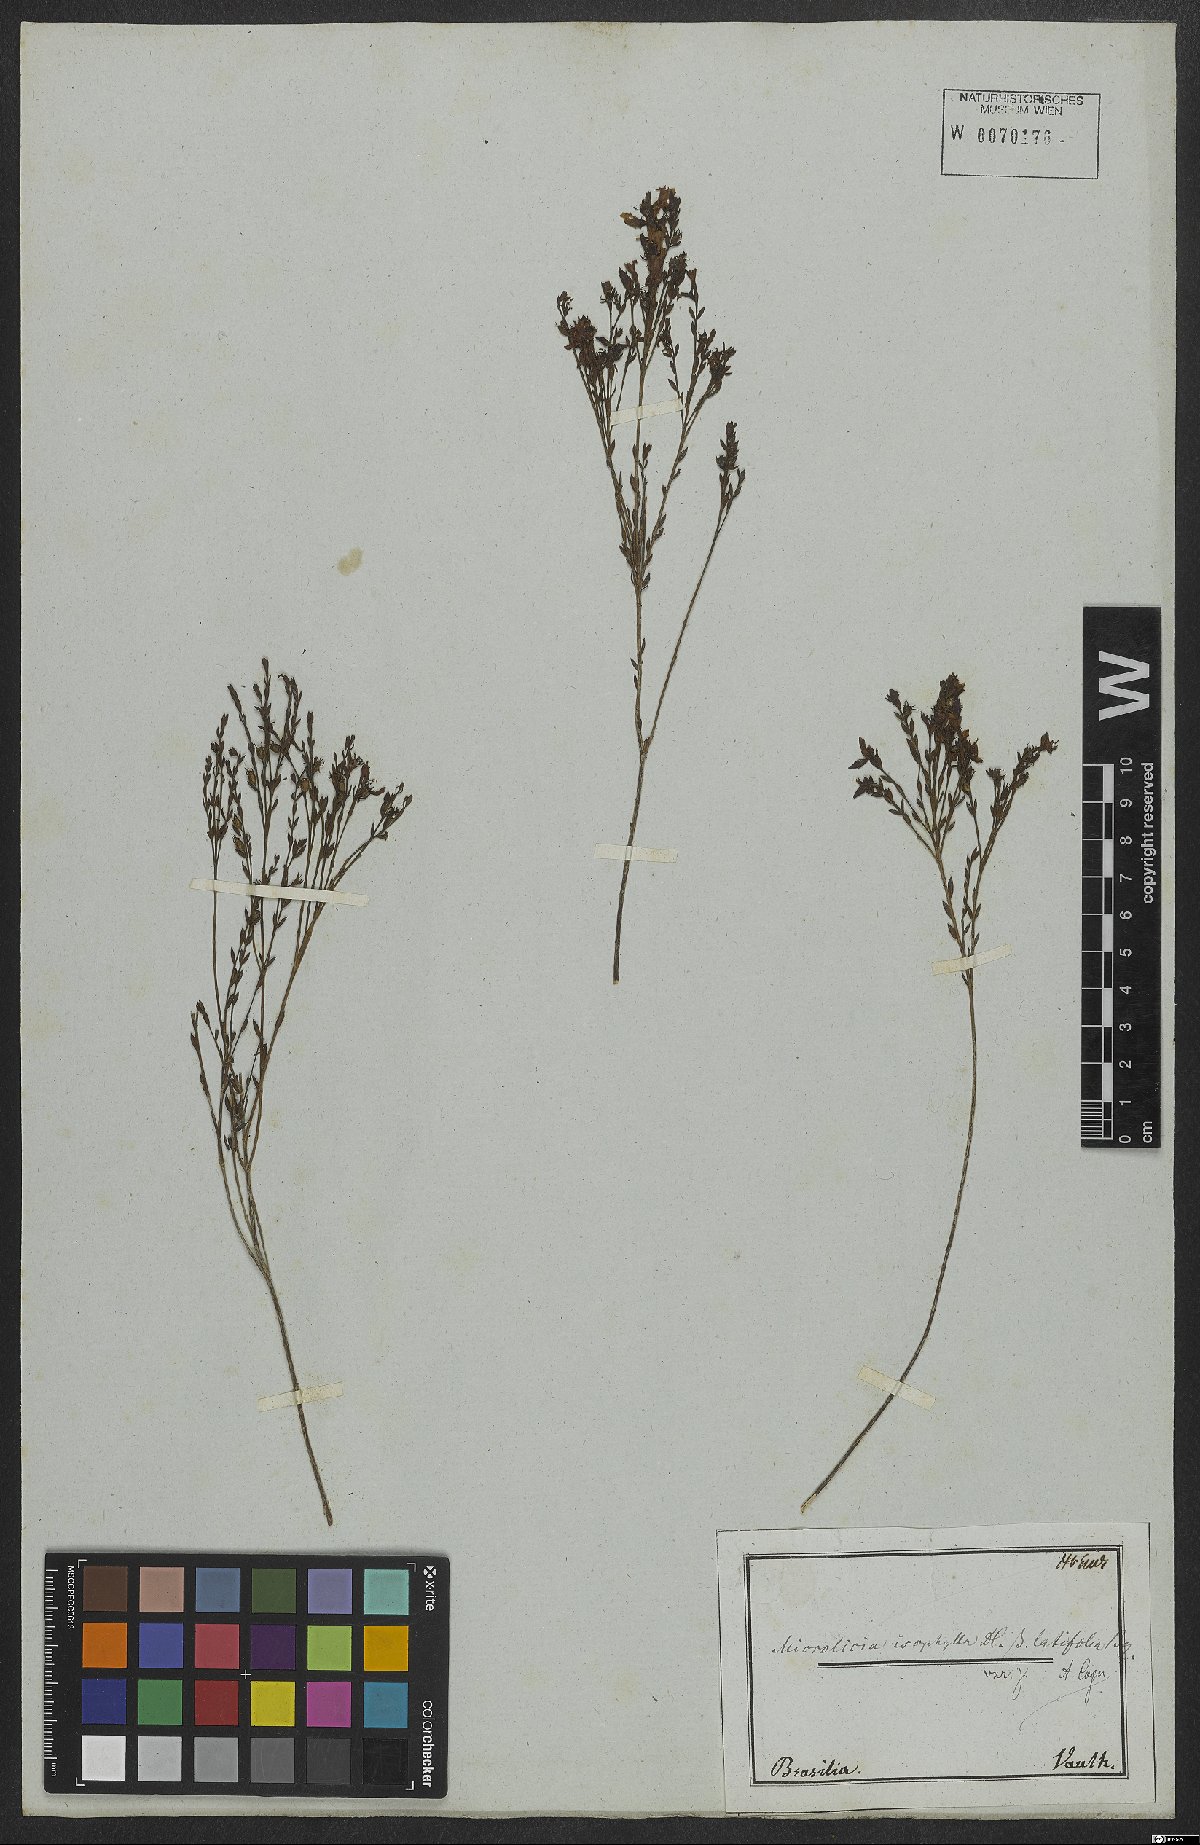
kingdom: Plantae
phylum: Tracheophyta
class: Magnoliopsida
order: Myrtales
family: Melastomataceae
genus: Microlicia
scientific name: Microlicia isophylla
